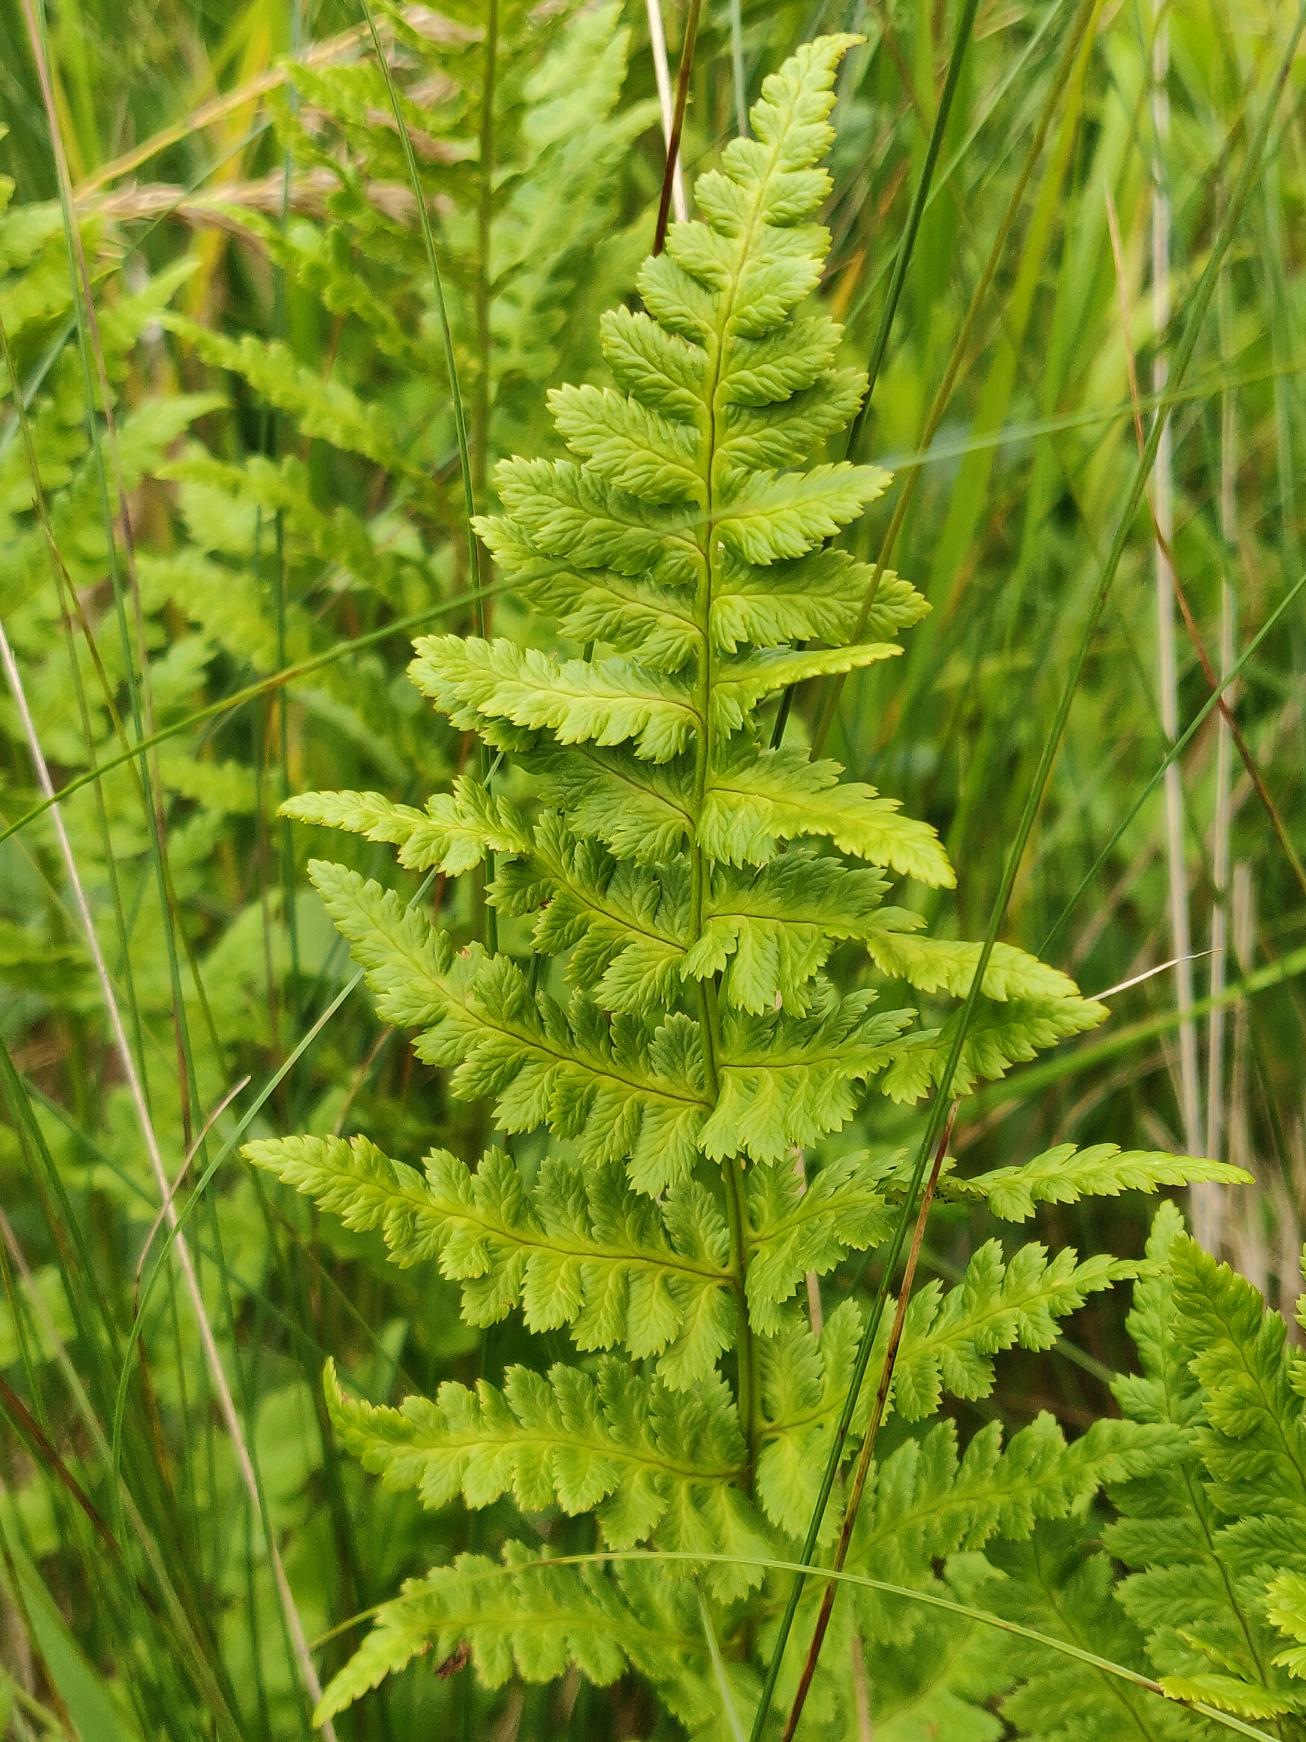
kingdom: Plantae
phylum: Tracheophyta
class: Polypodiopsida
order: Polypodiales
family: Dryopteridaceae
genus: Dryopteris
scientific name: Dryopteris cristata
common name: Butfinnet mangeløv
